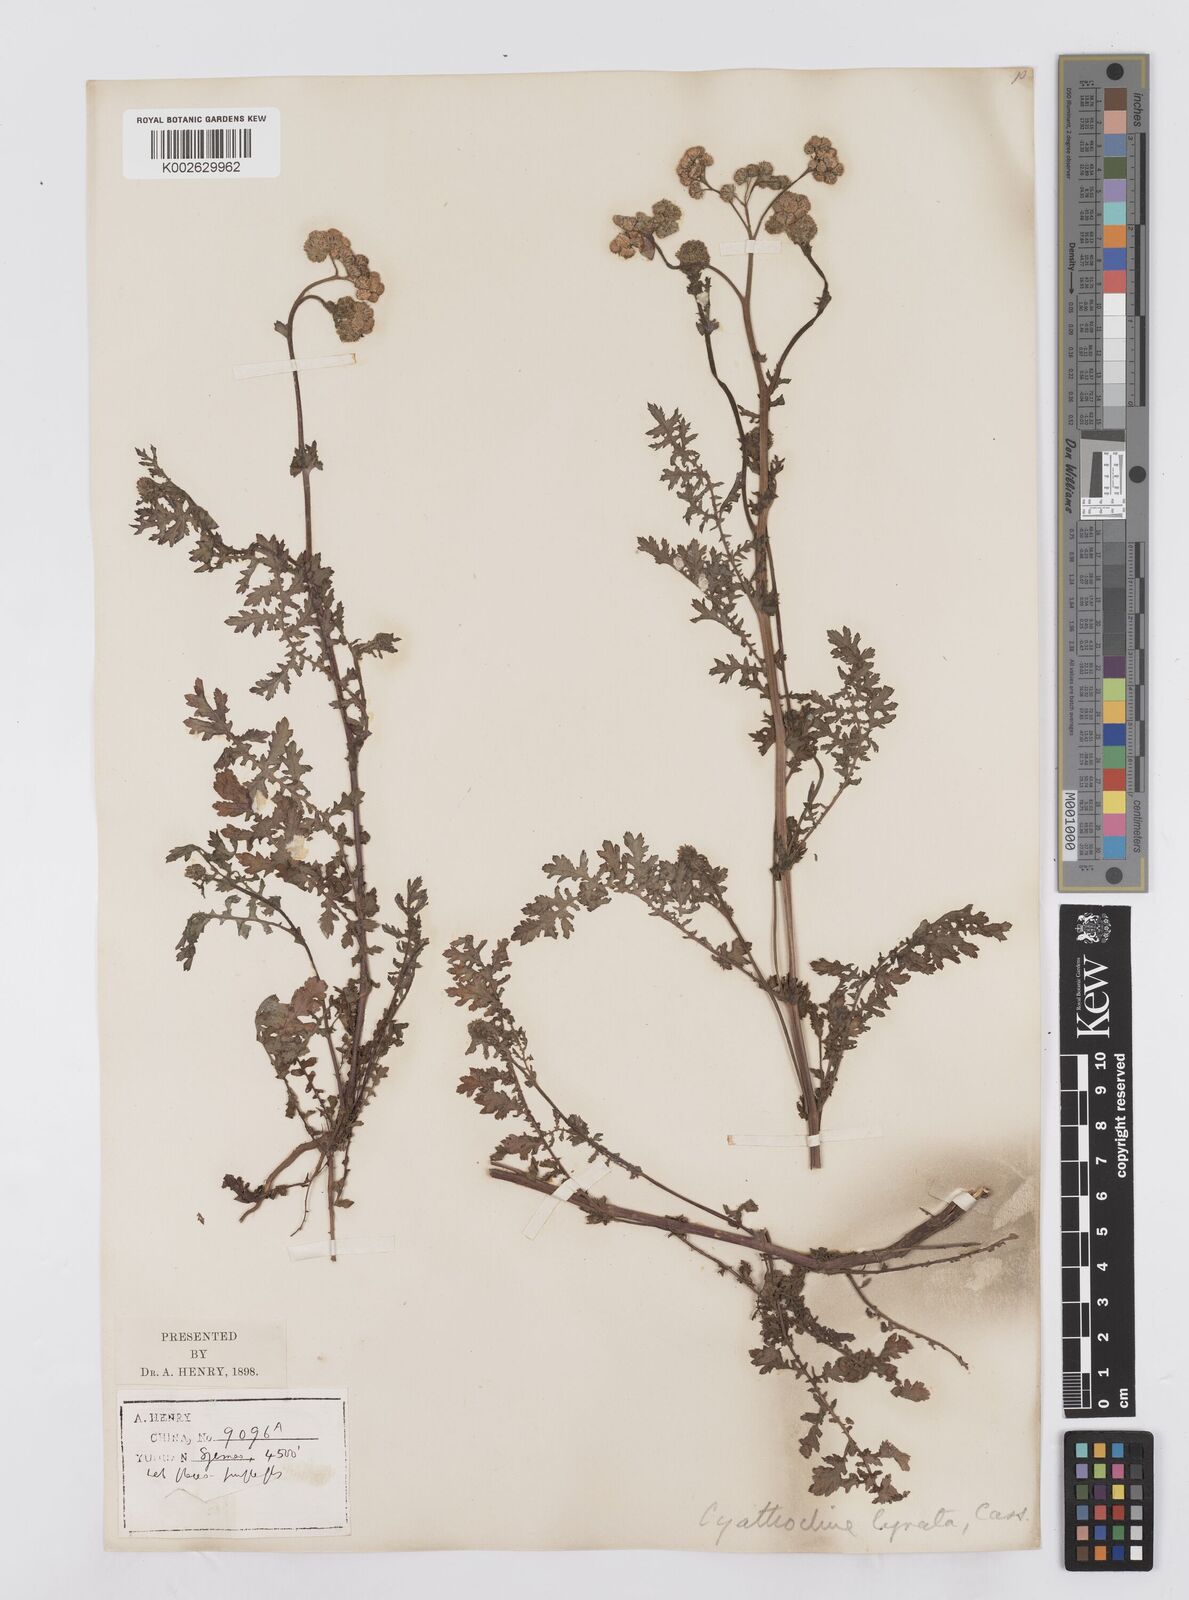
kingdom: Plantae
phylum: Tracheophyta
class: Magnoliopsida
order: Asterales
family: Asteraceae
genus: Cyathocline
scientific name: Cyathocline purpurea
